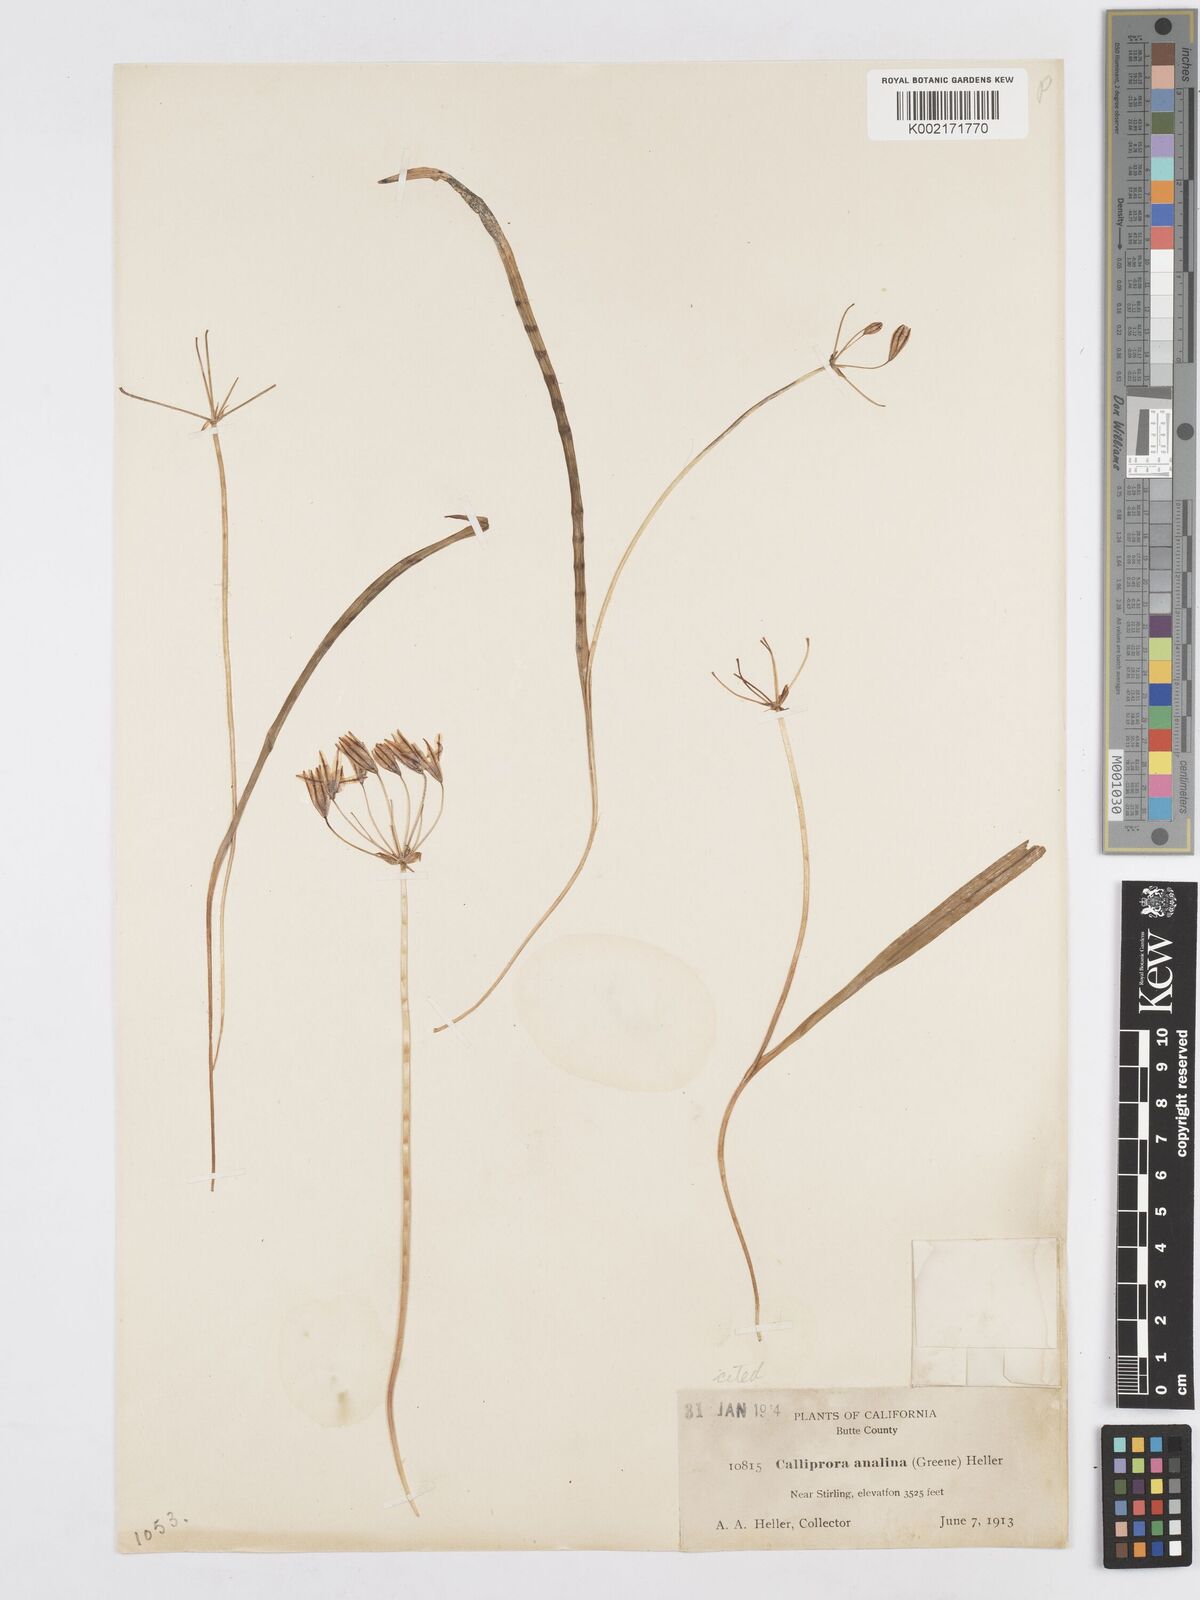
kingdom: Plantae
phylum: Tracheophyta
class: Liliopsida
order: Asparagales
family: Asparagaceae
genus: Triteleia
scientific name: Triteleia ixioides
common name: Yellow-brodiaea
